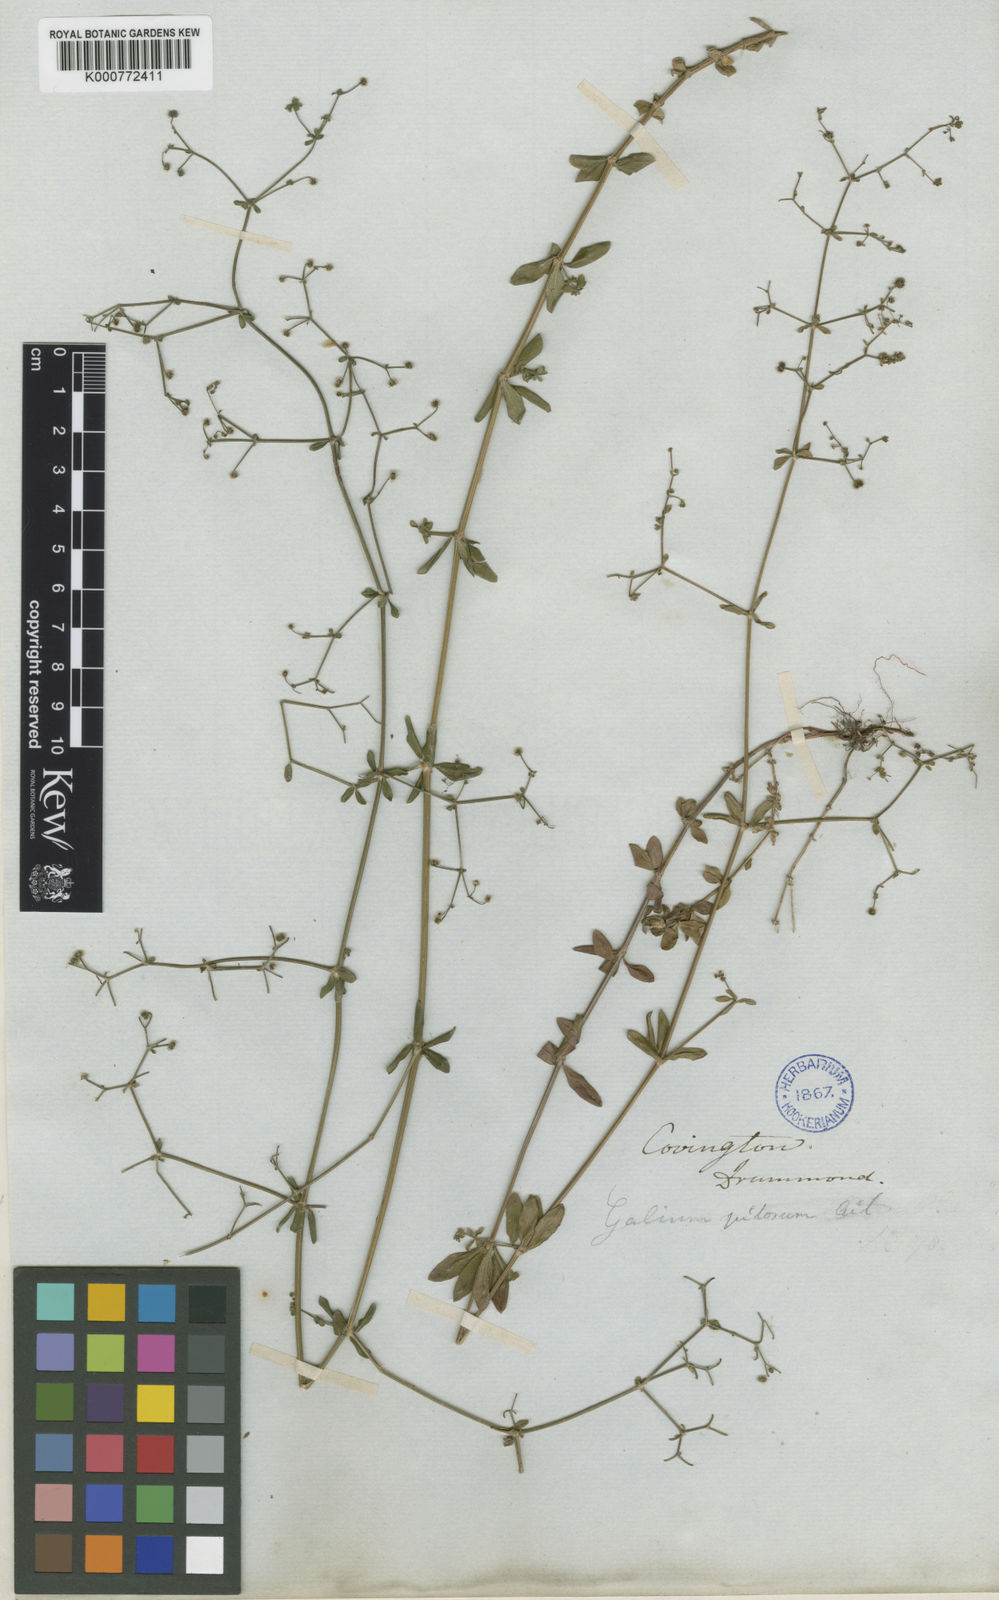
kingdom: Plantae
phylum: Tracheophyta
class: Magnoliopsida
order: Gentianales
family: Rubiaceae
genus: Galium
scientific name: Galium pilosum
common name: Hairy bedstraw
